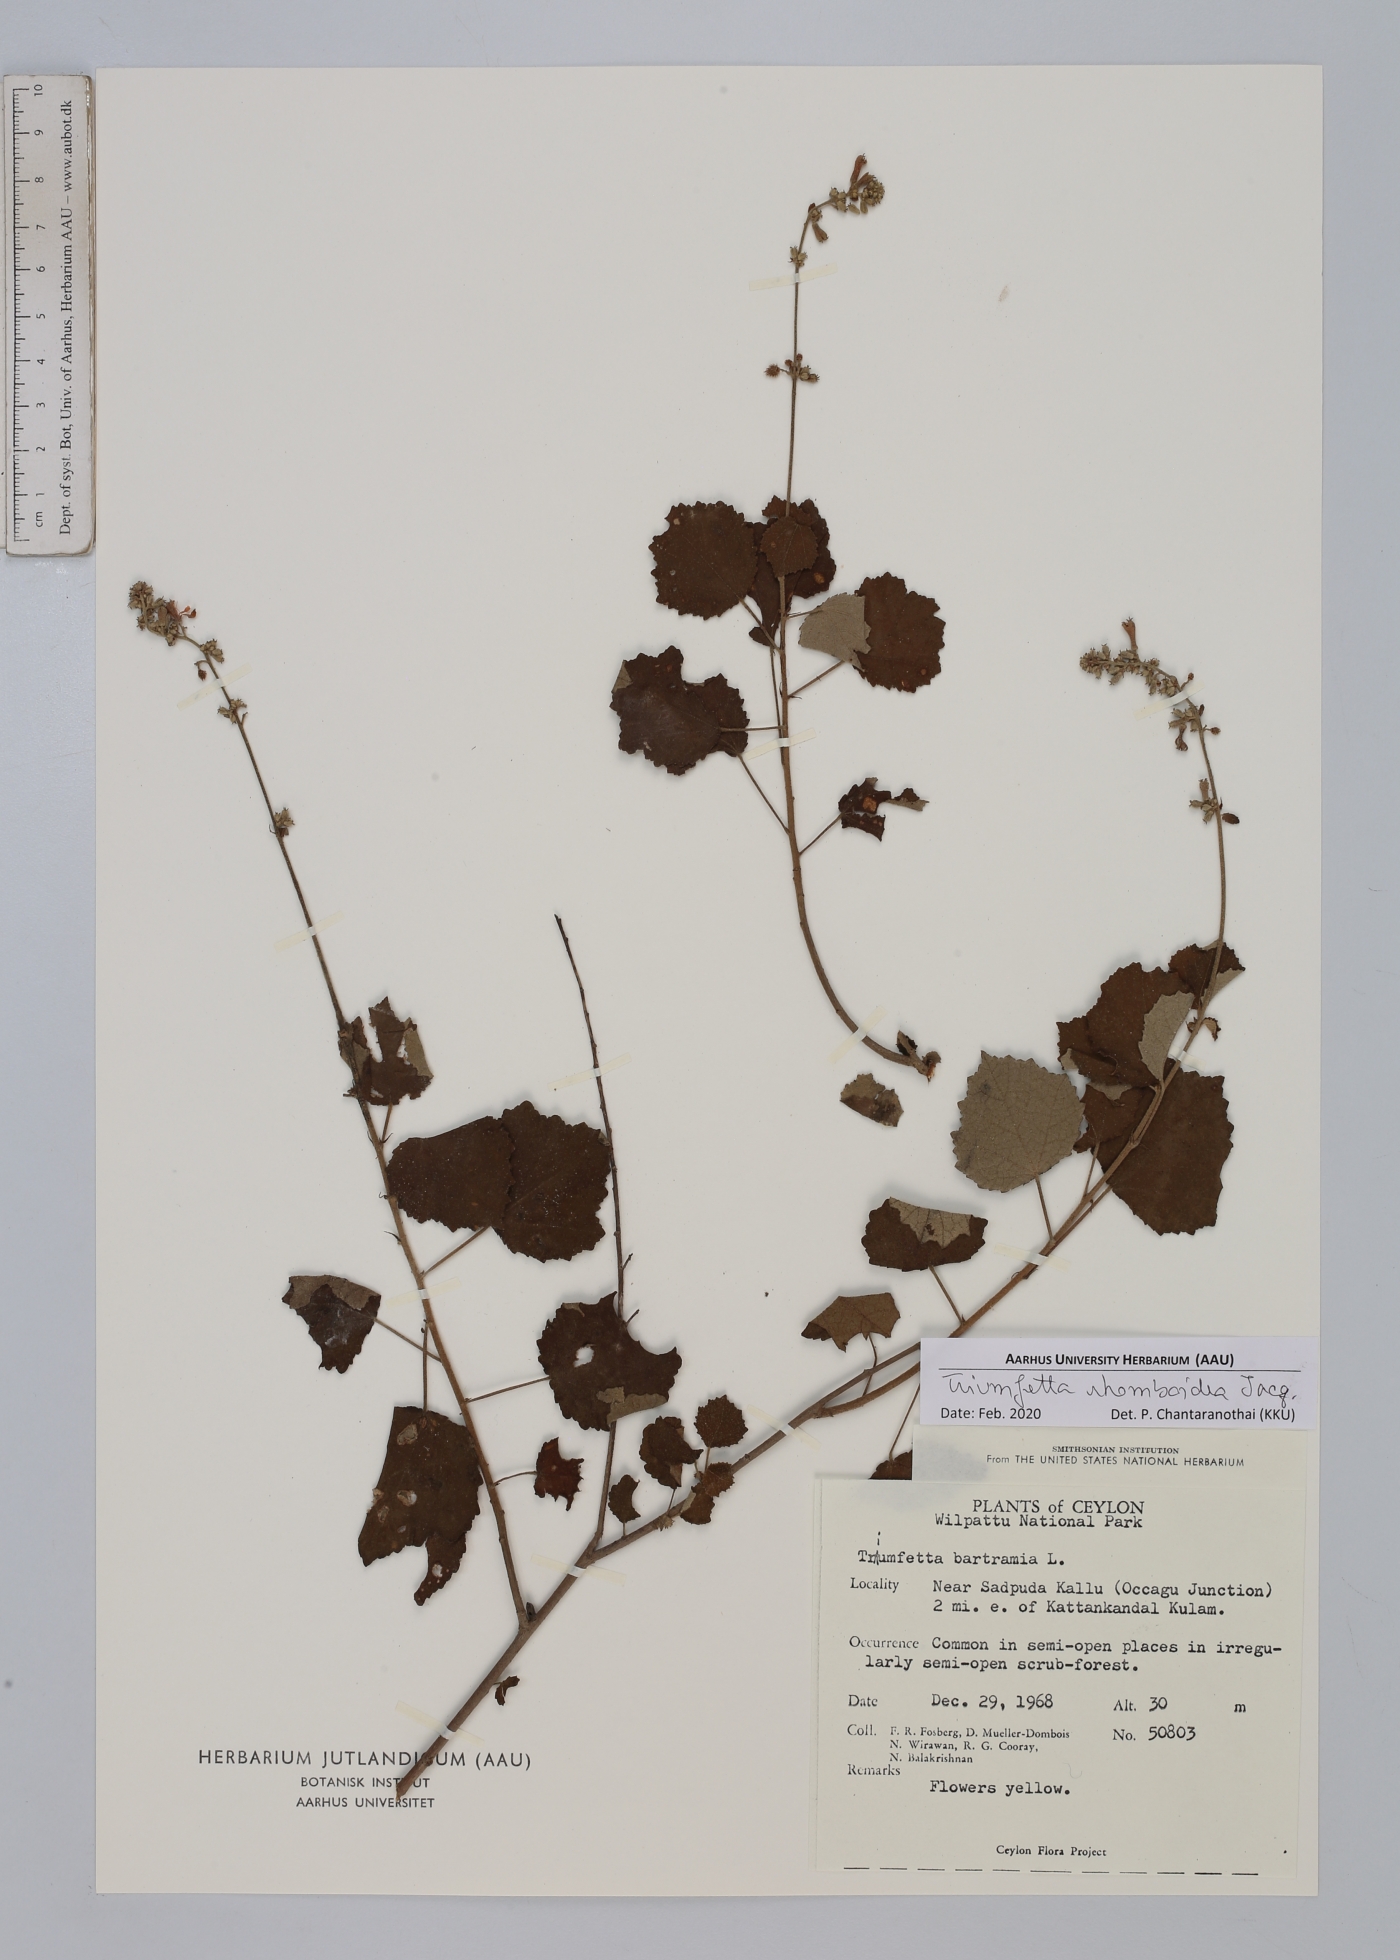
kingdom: Plantae
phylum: Tracheophyta
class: Magnoliopsida
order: Malvales
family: Malvaceae
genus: Triumfetta
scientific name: Triumfetta rhomboidea
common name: Diamond burbark
